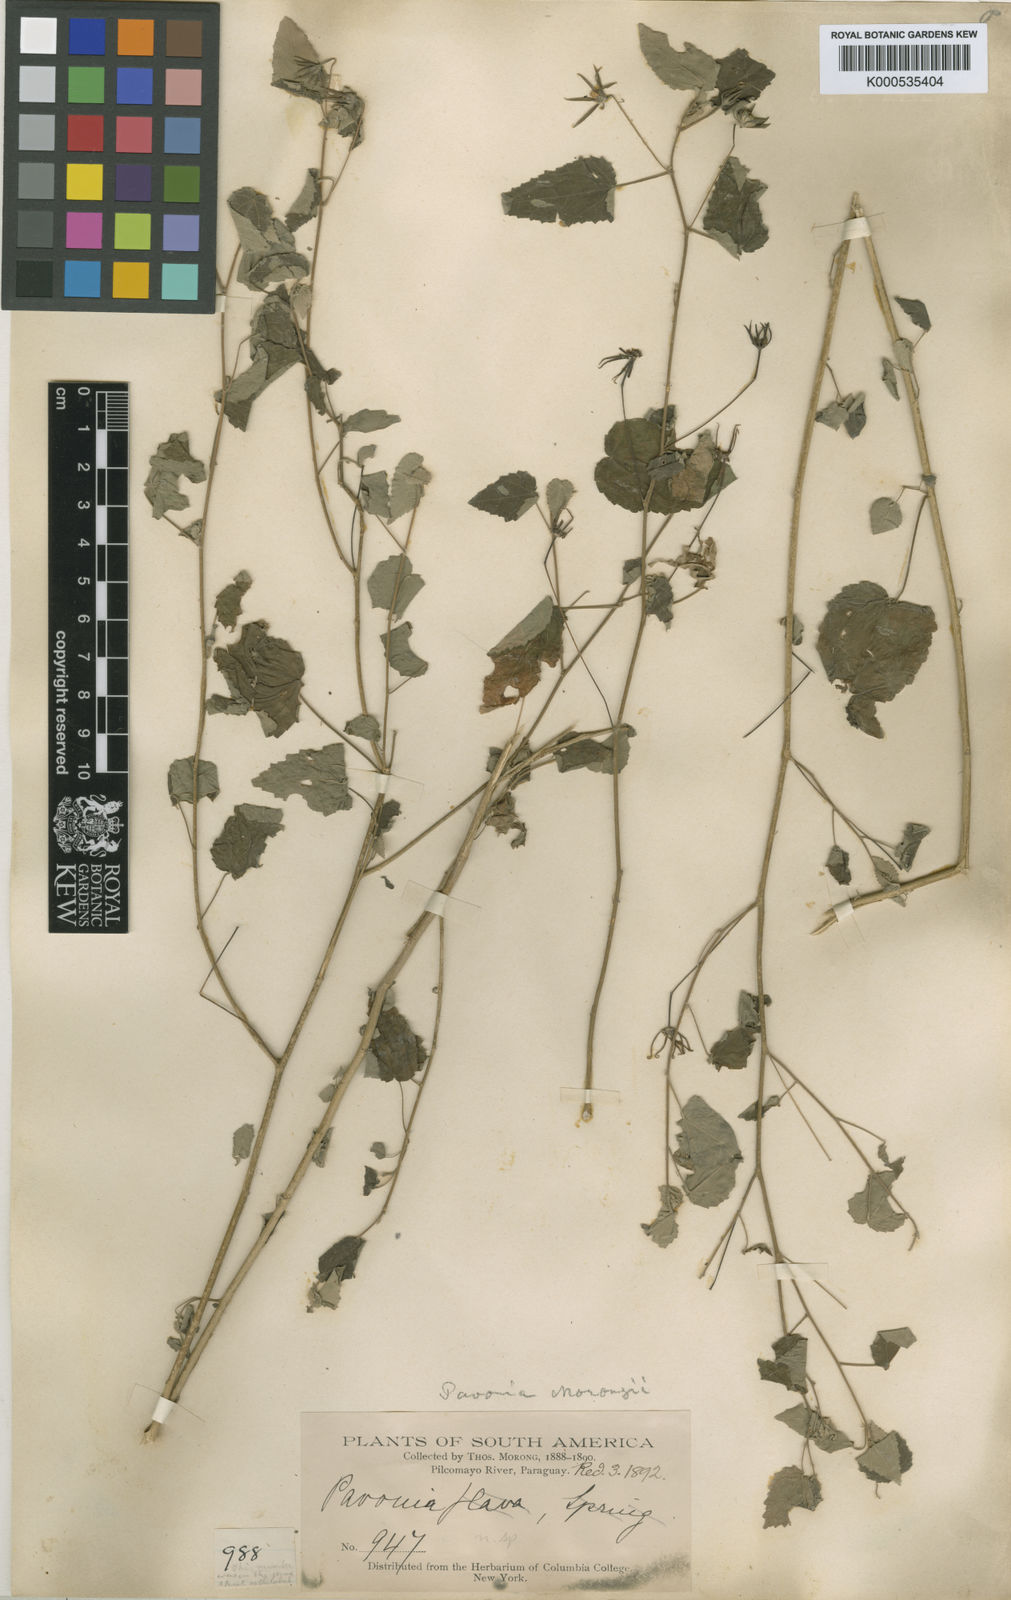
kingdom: Plantae
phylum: Tracheophyta
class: Magnoliopsida
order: Malvales
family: Malvaceae
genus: Pavonia
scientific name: Pavonia hieronymi
